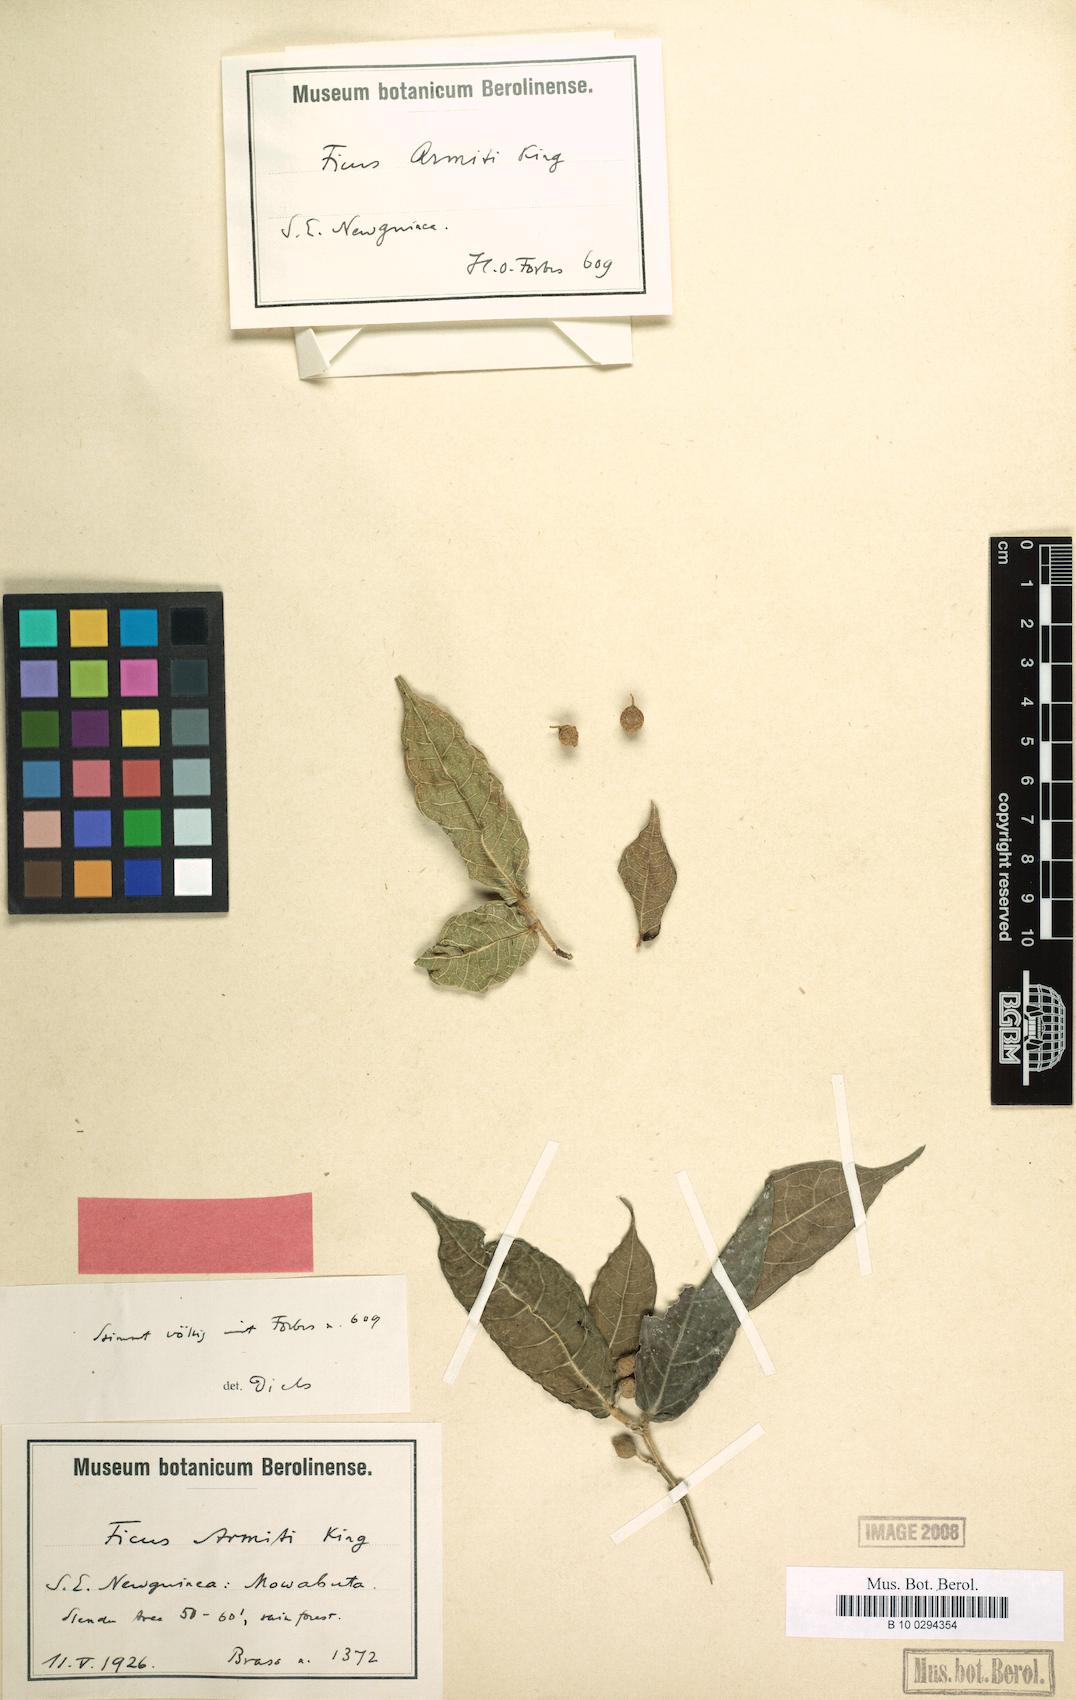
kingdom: Plantae
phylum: Tracheophyta
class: Magnoliopsida
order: Rosales
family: Moraceae
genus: Ficus
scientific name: Ficus armitii
